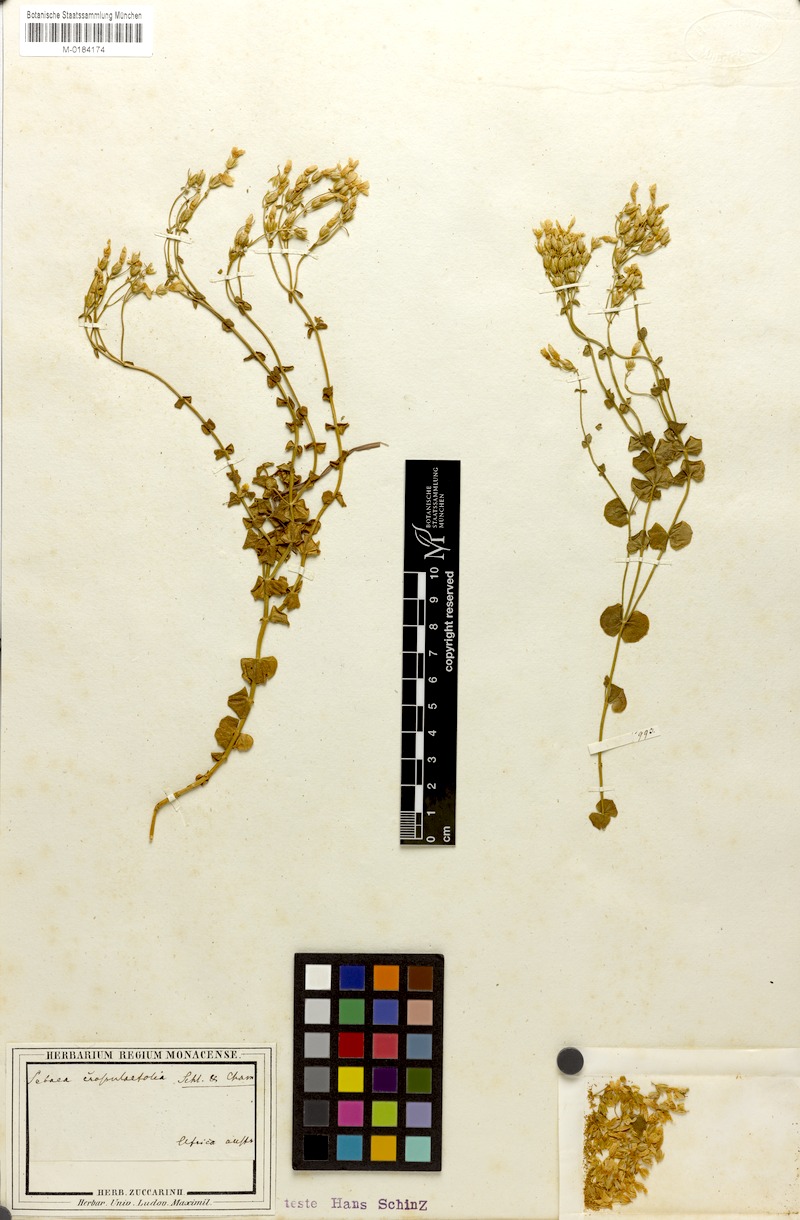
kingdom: Plantae
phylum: Tracheophyta
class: Magnoliopsida
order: Gentianales
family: Gentianaceae
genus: Sebaea
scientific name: Sebaea crassulifolia
